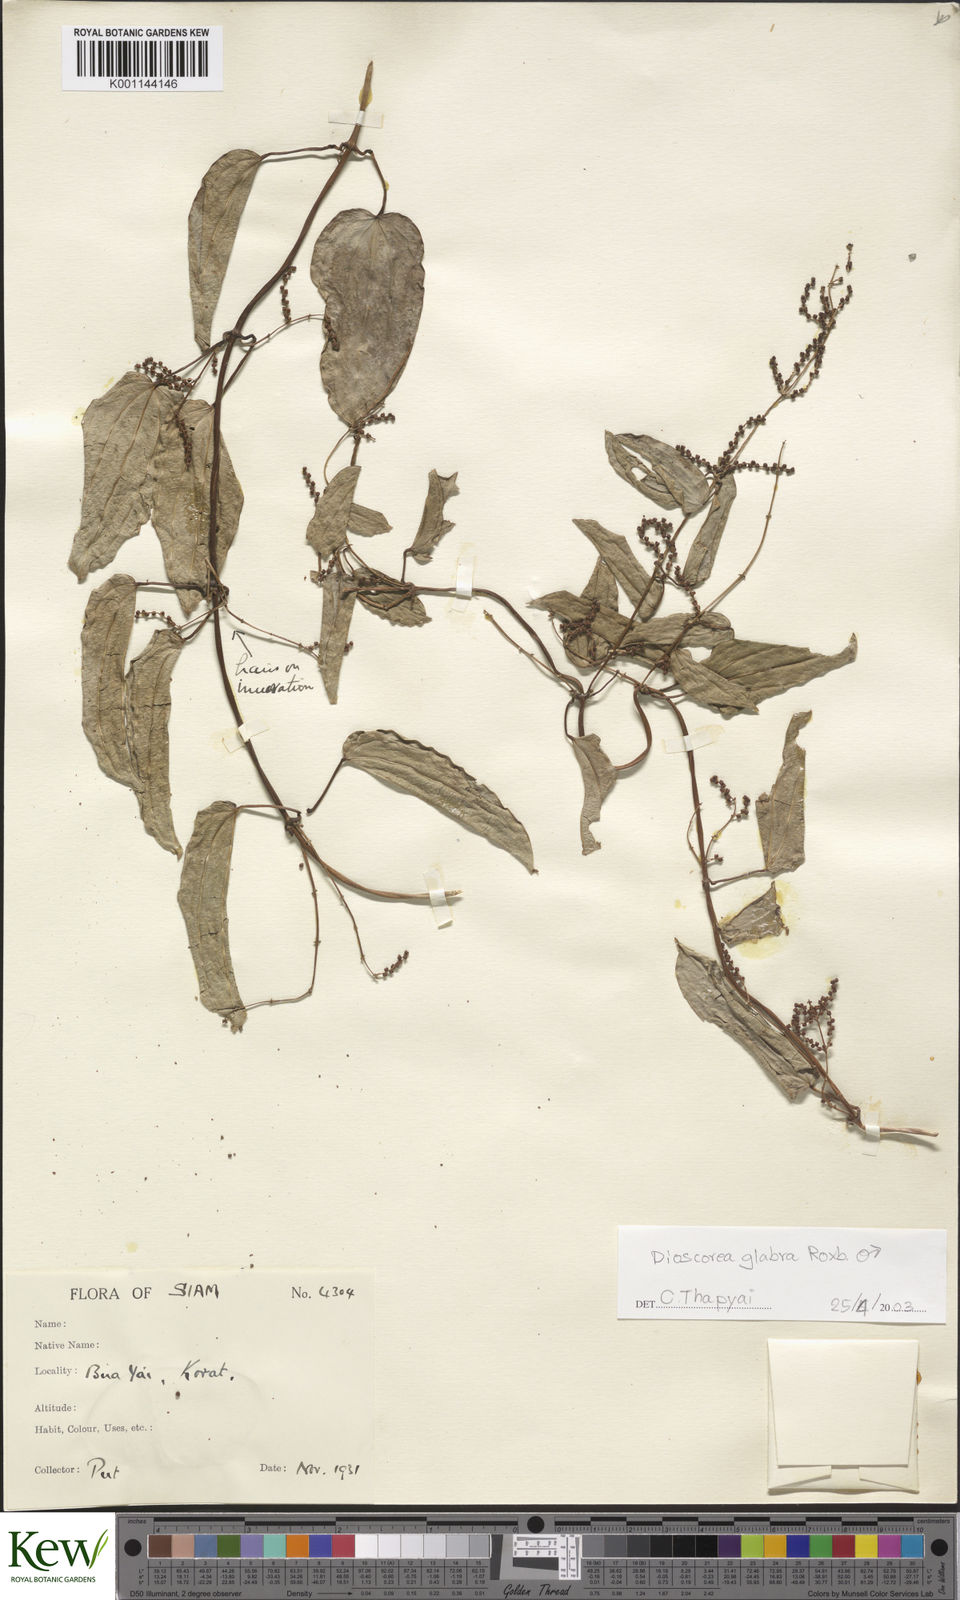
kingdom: Plantae
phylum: Tracheophyta
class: Liliopsida
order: Dioscoreales
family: Dioscoreaceae
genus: Dioscorea
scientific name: Dioscorea
